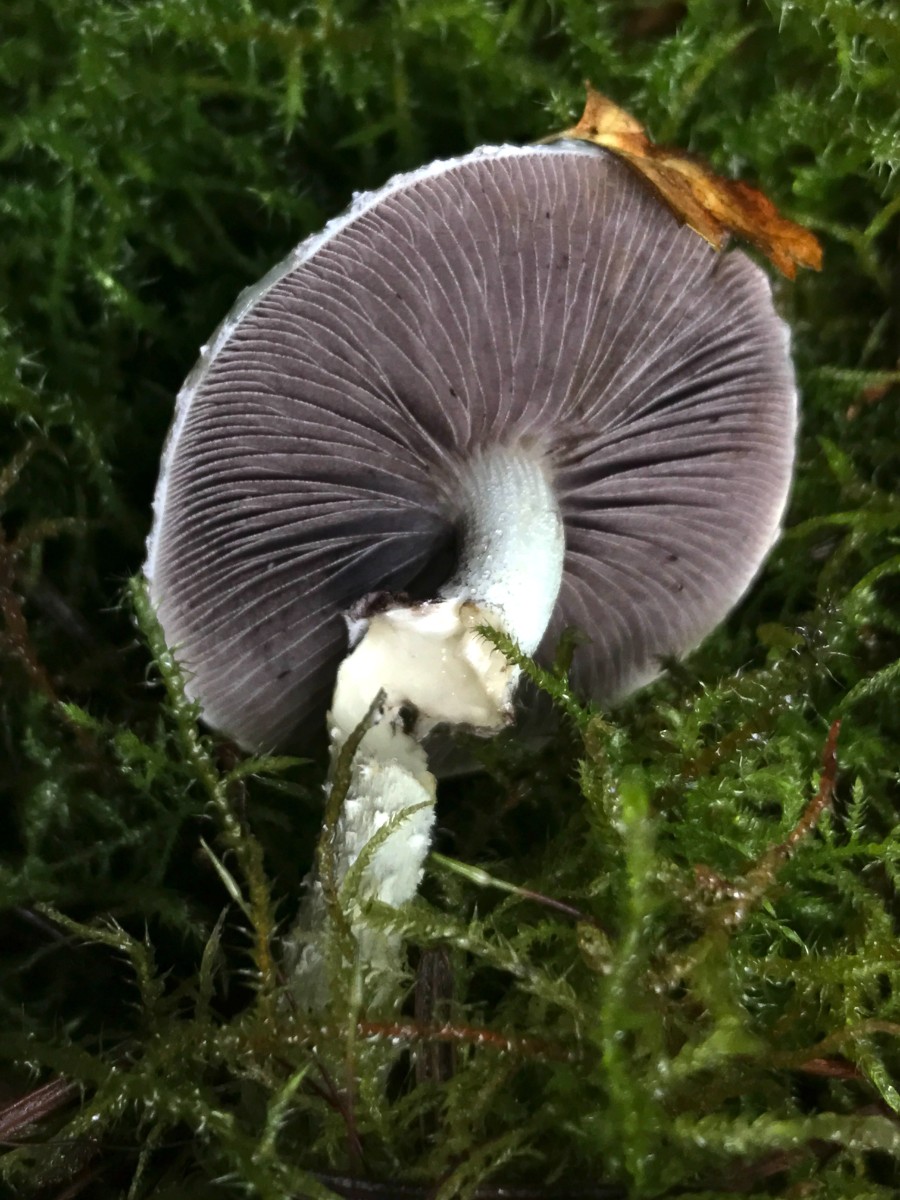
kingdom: Fungi
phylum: Basidiomycota
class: Agaricomycetes
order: Agaricales
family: Strophariaceae
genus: Stropharia
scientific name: Stropharia aeruginosa
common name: spanskgrøn bredblad
